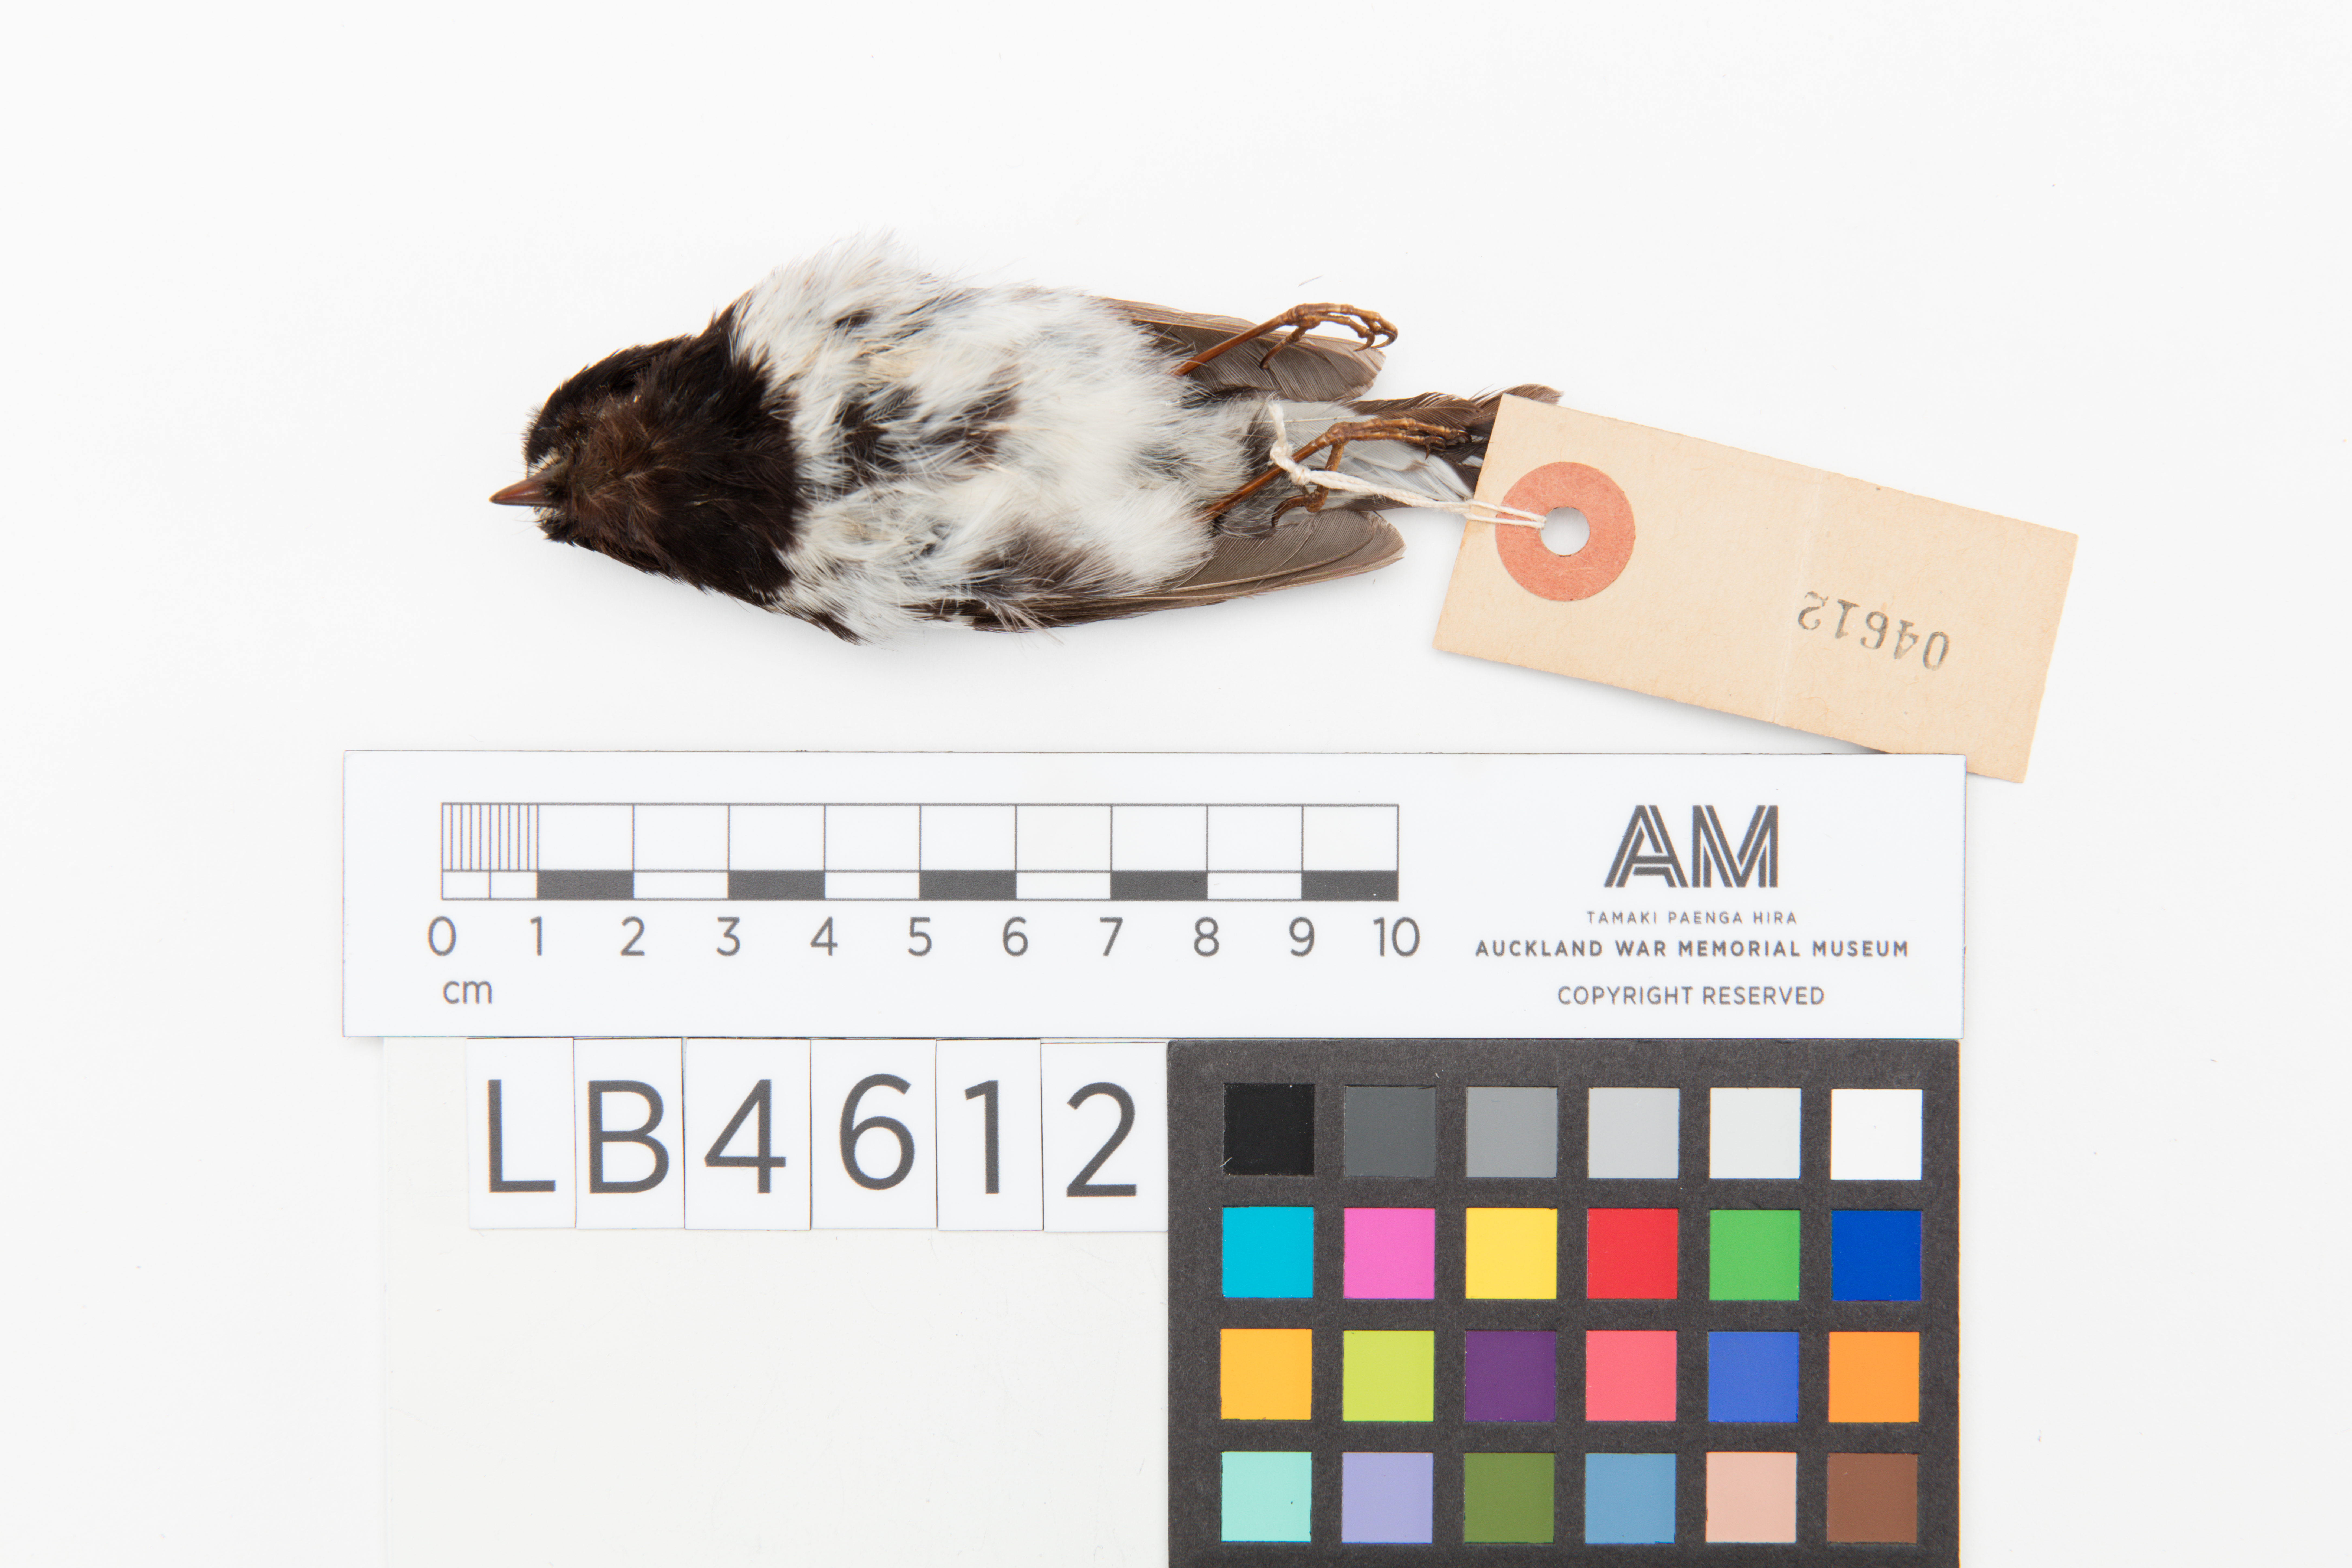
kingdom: Animalia
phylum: Chordata
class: Aves
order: Passeriformes
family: Petroicidae
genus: Petroica
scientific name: Petroica macrocephala
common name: Tomtit
